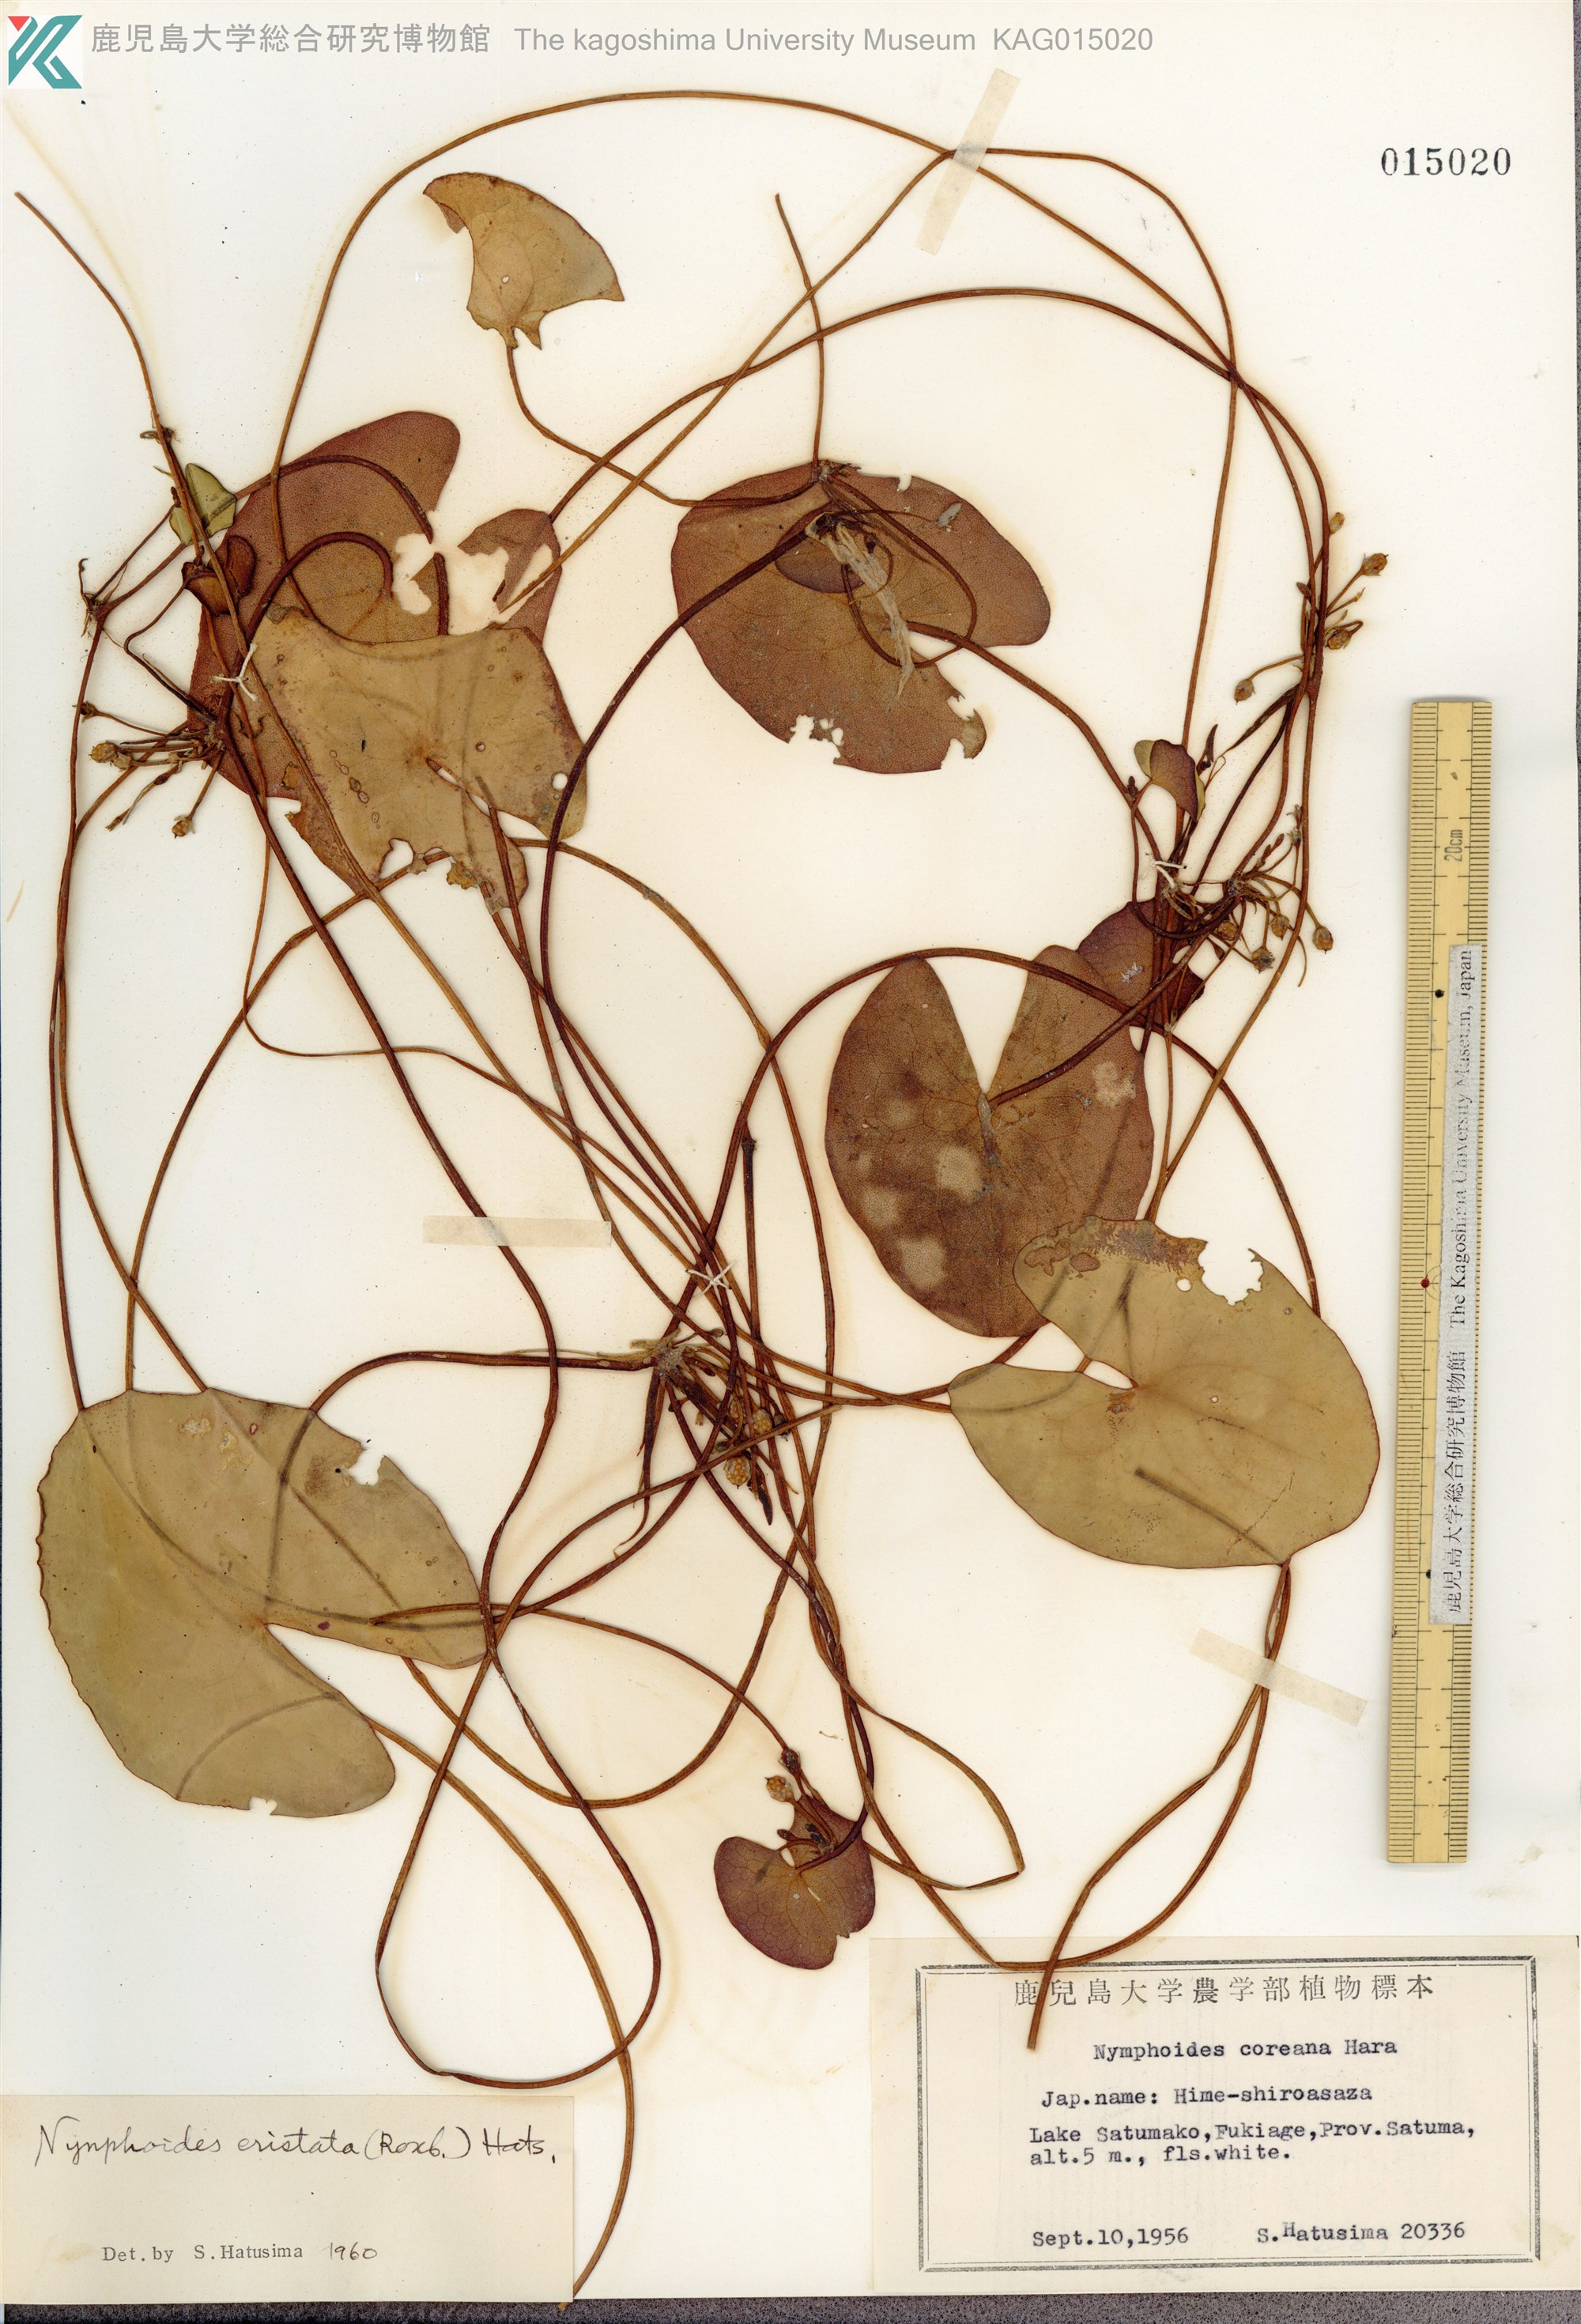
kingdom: Plantae
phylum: Tracheophyta
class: Magnoliopsida
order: Asterales
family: Menyanthaceae
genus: Nymphoides
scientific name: Nymphoides coreana
